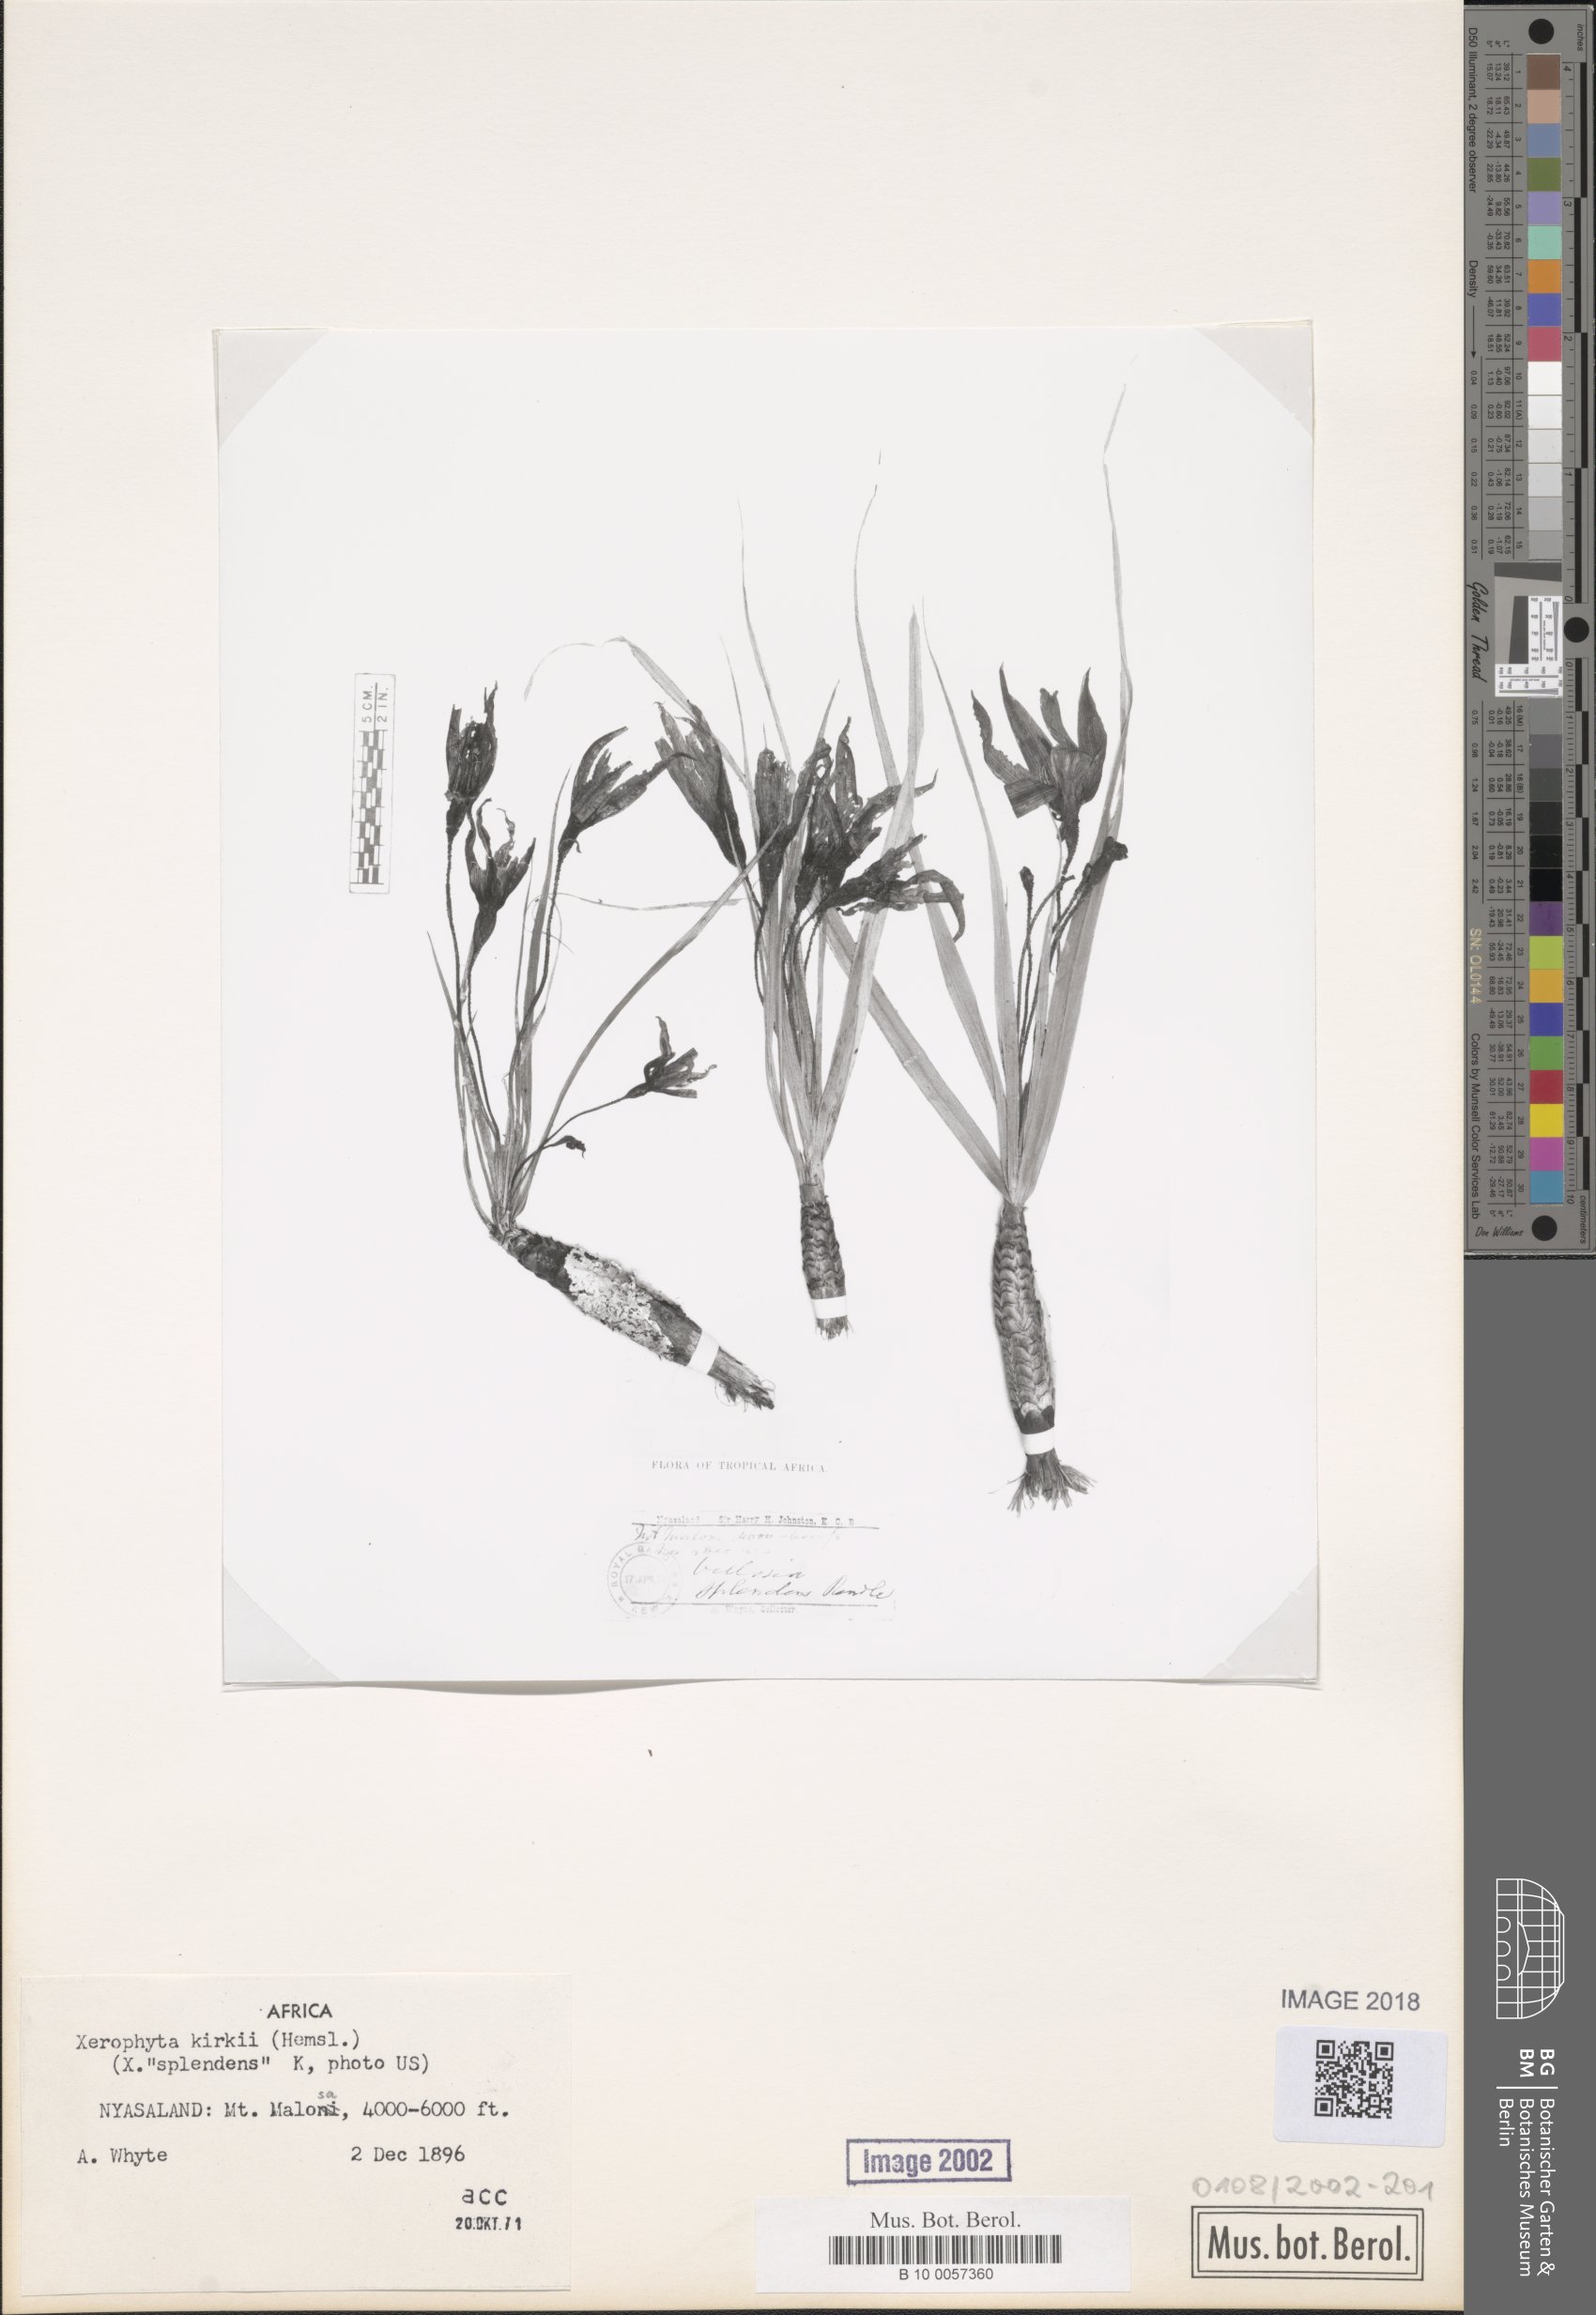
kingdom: Plantae
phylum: Tracheophyta
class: Liliopsida
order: Pandanales
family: Velloziaceae
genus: Xerophyta
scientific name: Xerophyta splendens
